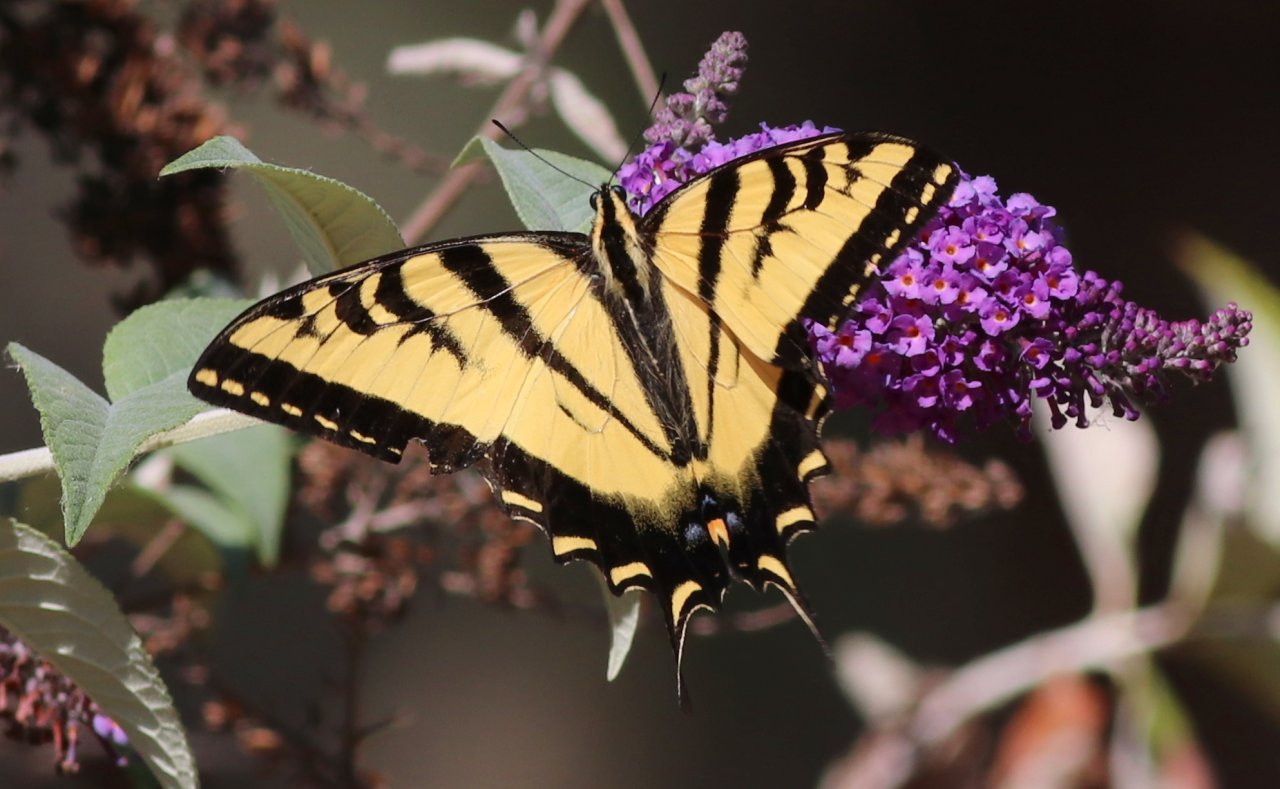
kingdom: Animalia
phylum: Arthropoda
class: Insecta
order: Lepidoptera
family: Papilionidae
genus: Pterourus
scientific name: Pterourus rutulus
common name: Western Tiger Swallowtail
